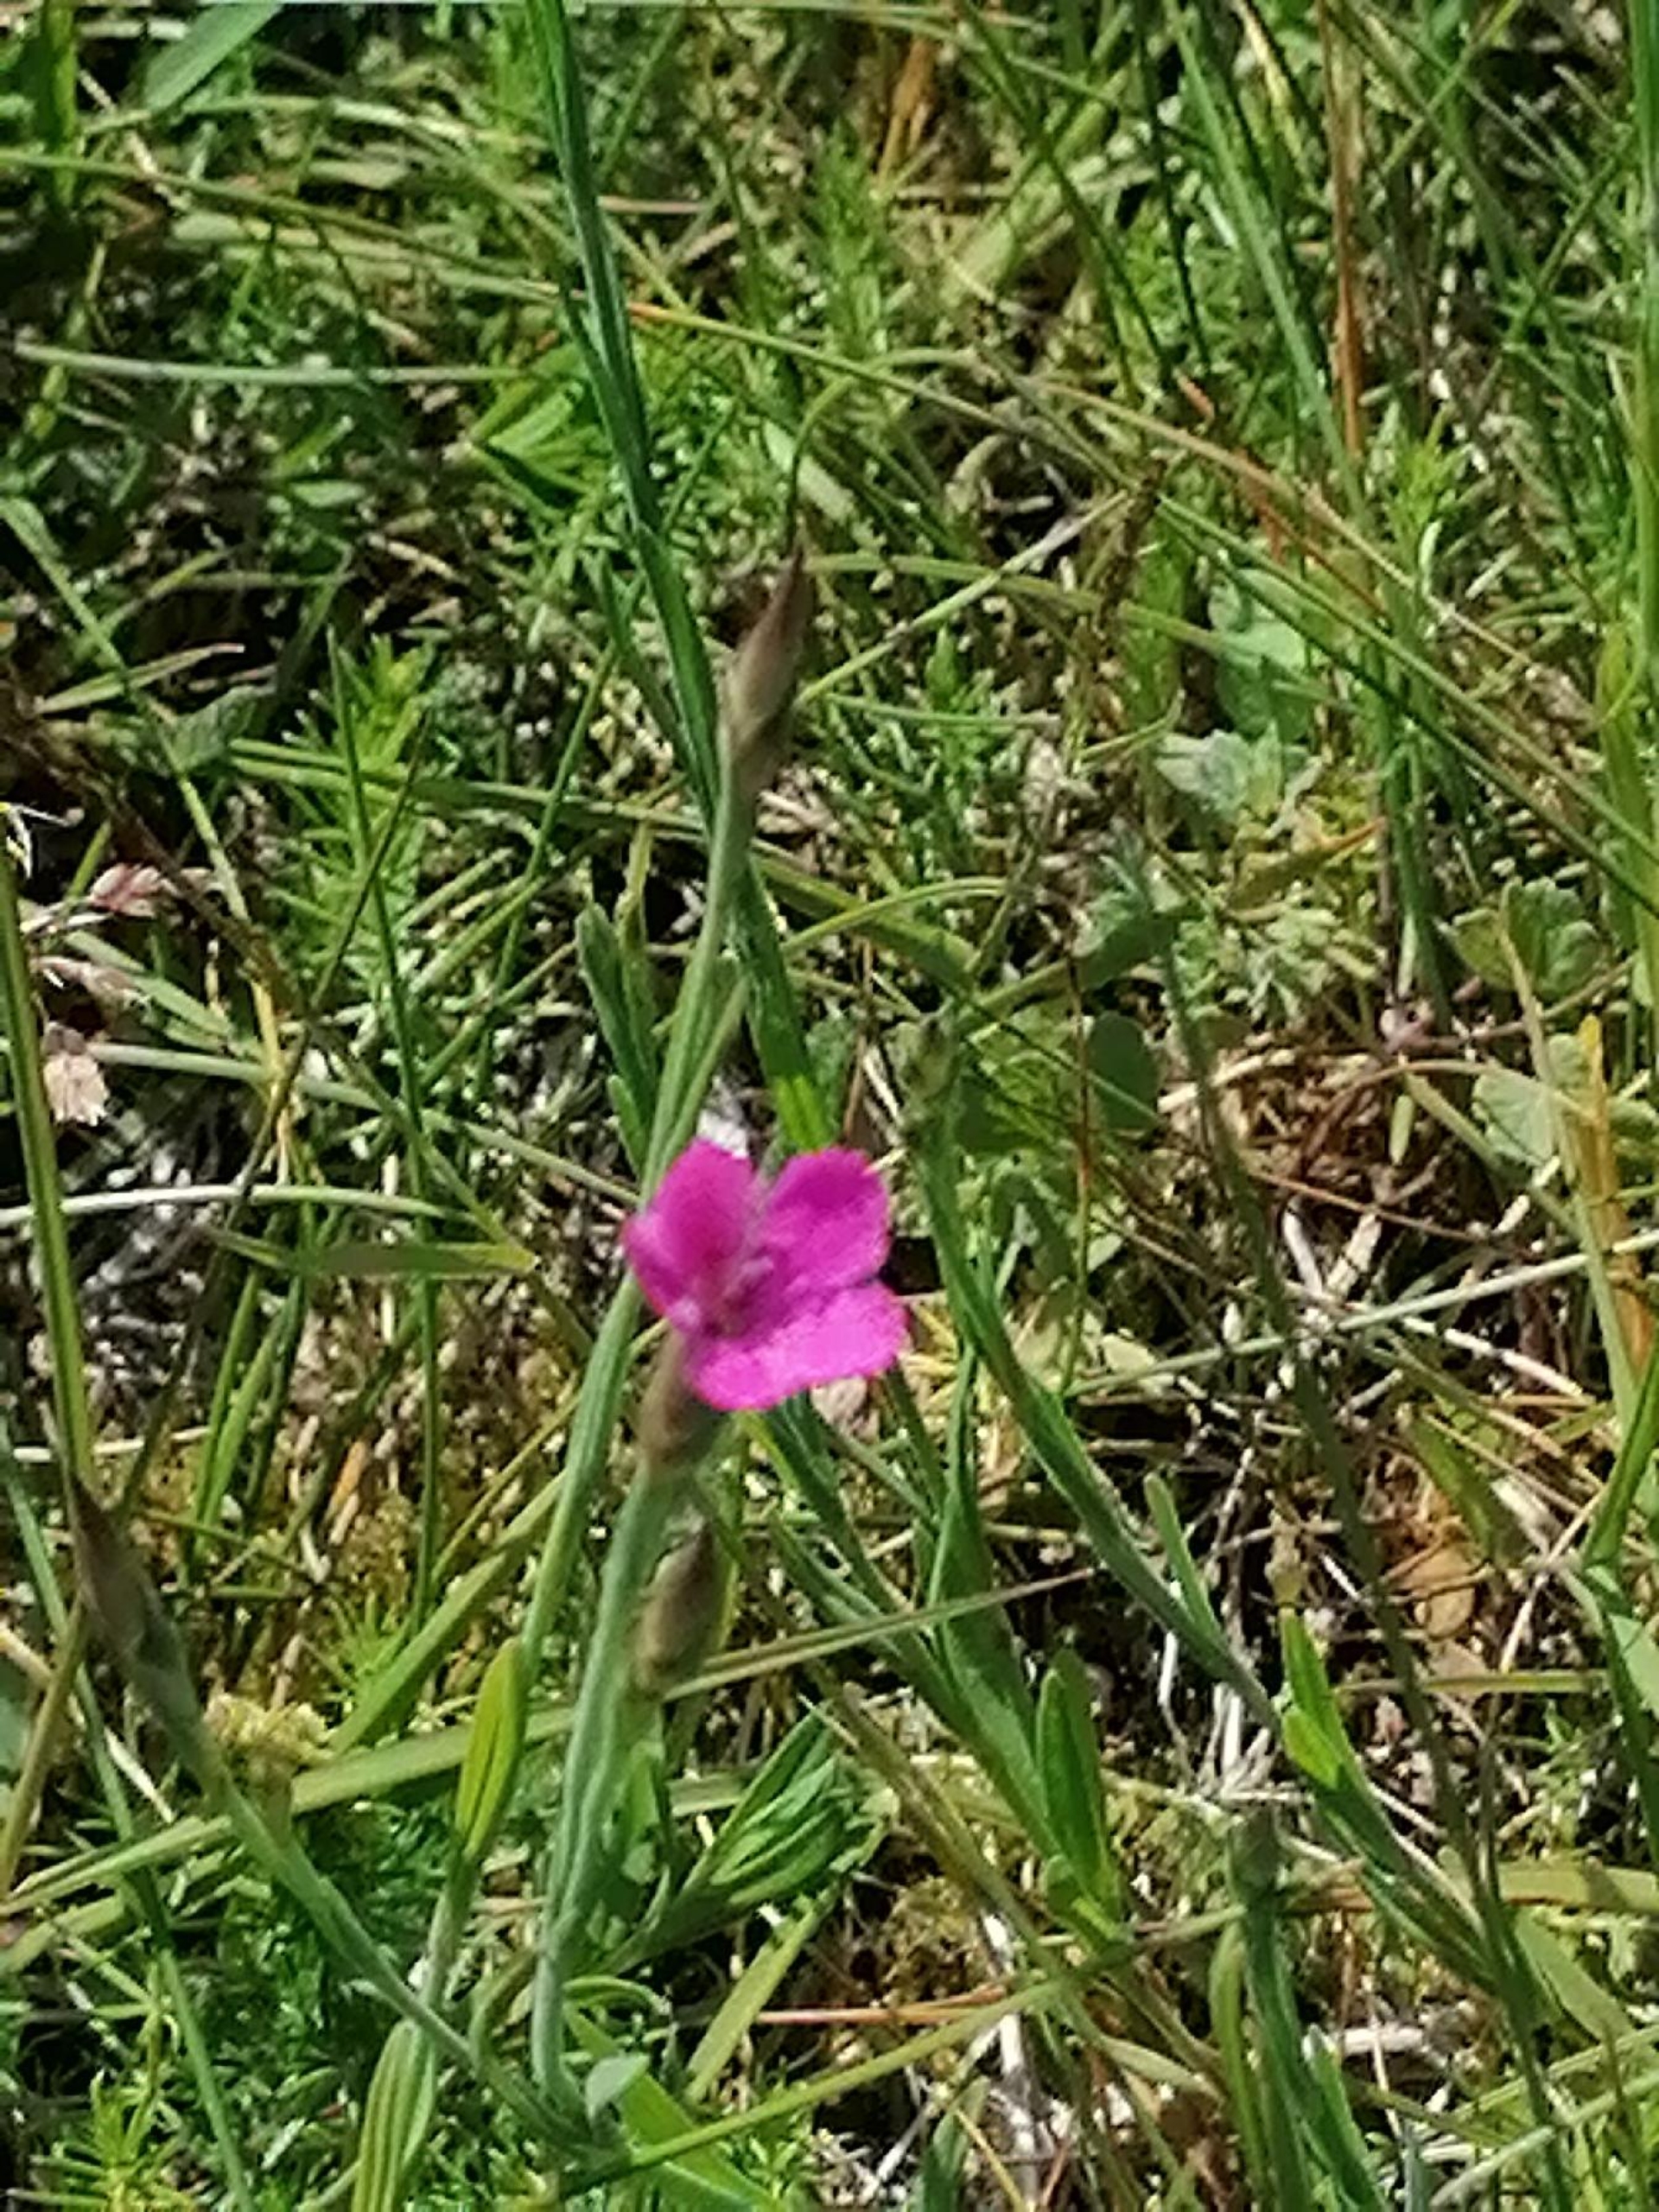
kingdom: Plantae
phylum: Tracheophyta
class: Magnoliopsida
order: Caryophyllales
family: Caryophyllaceae
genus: Dianthus
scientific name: Dianthus deltoides
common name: Bakke-nellike
